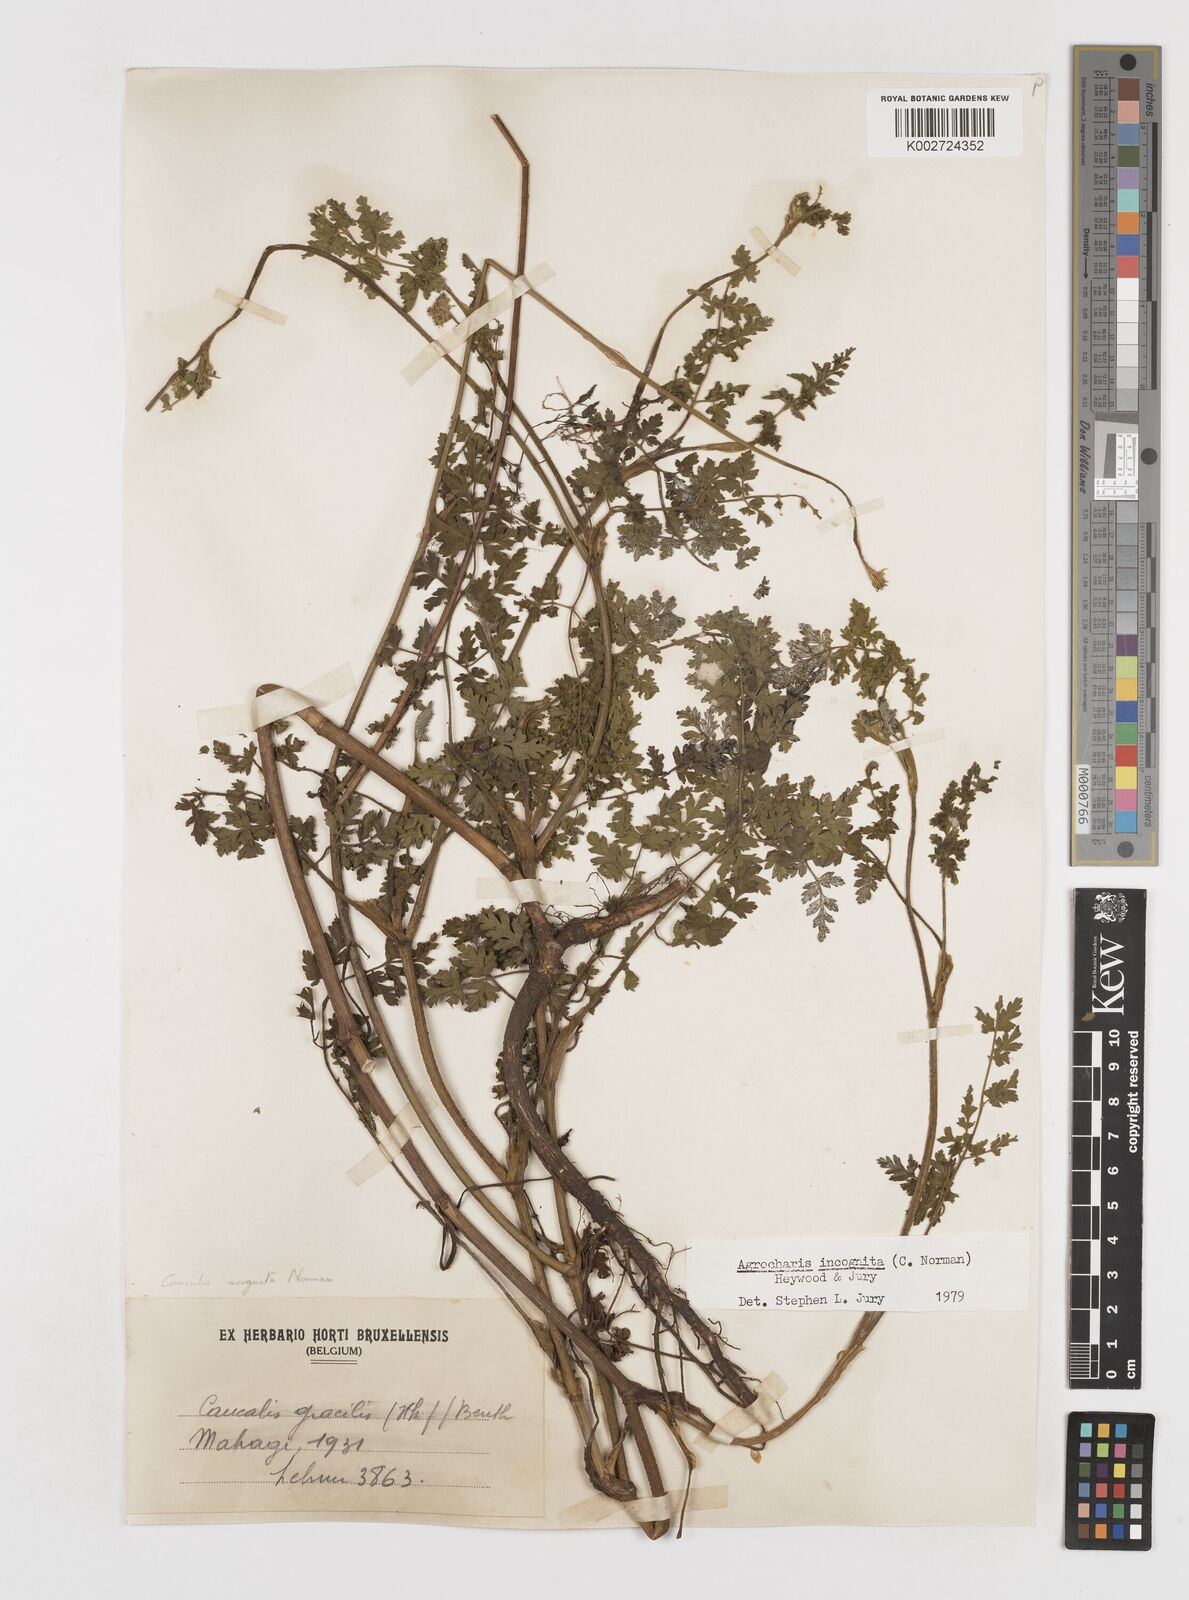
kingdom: Plantae
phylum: Tracheophyta
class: Magnoliopsida
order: Apiales
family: Apiaceae
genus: Daucus
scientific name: Daucus incognitus
